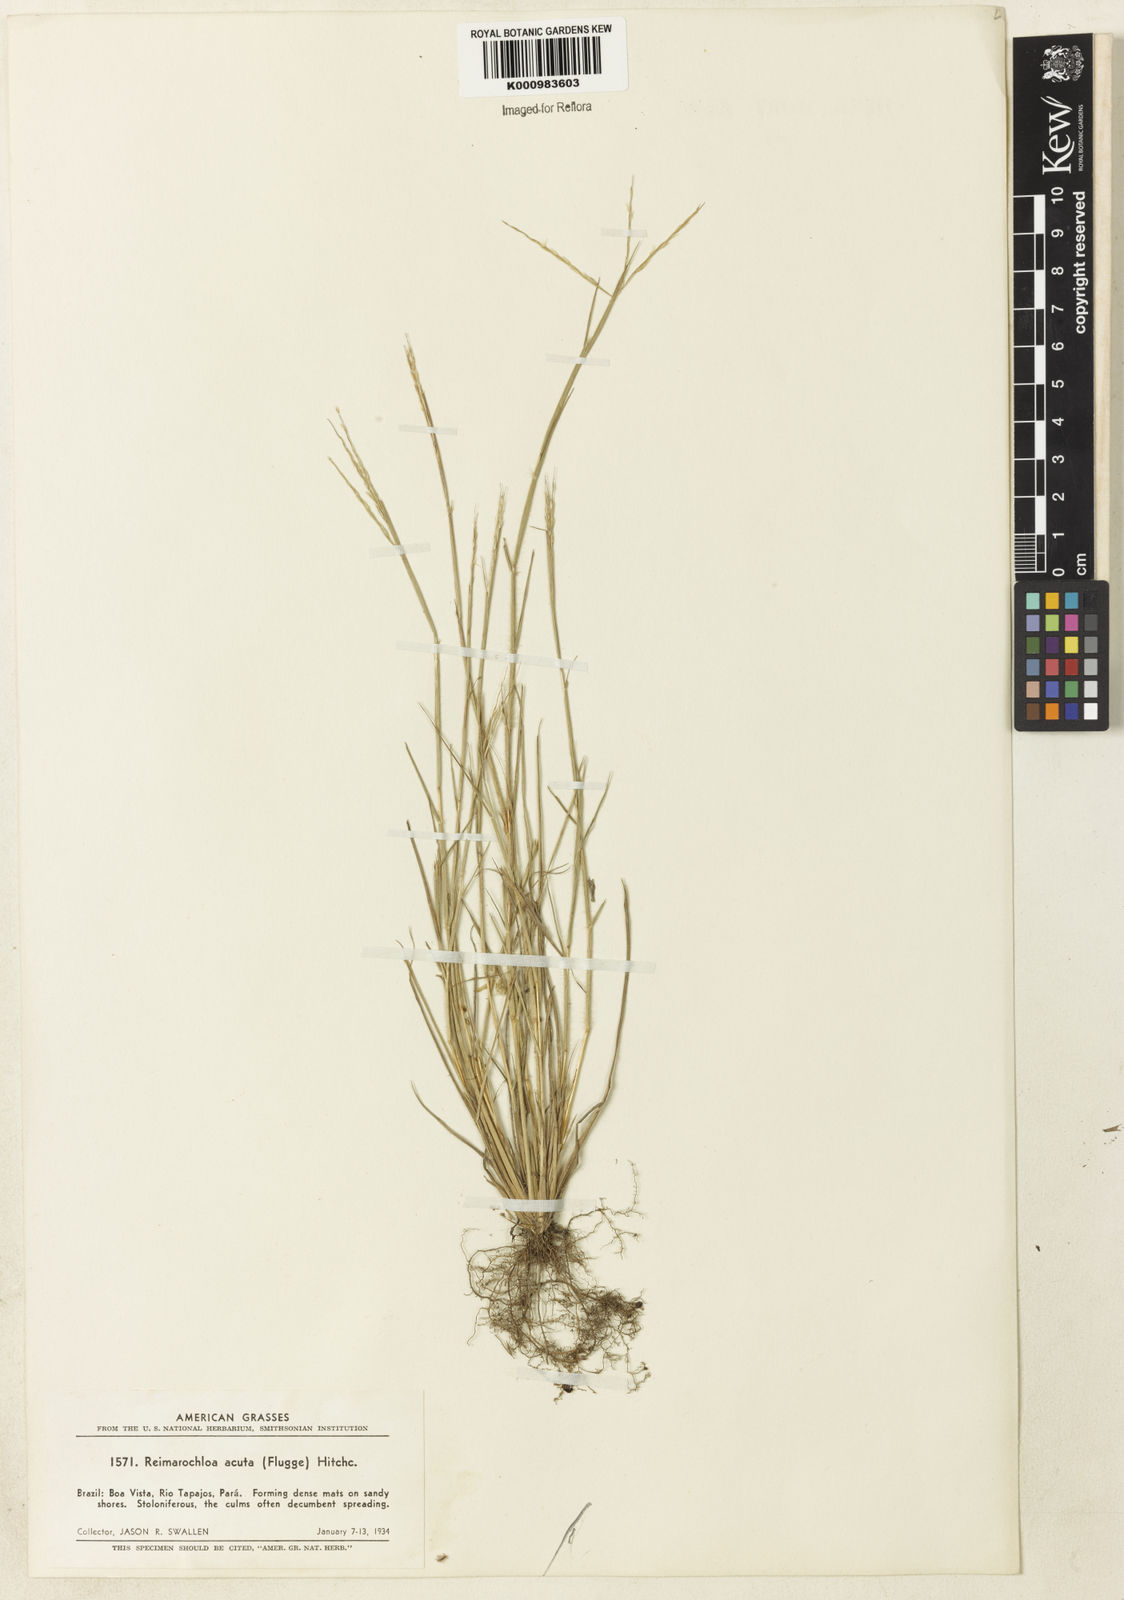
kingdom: Plantae
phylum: Tracheophyta
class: Liliopsida
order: Poales
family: Poaceae
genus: Paspalum
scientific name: Paspalum
